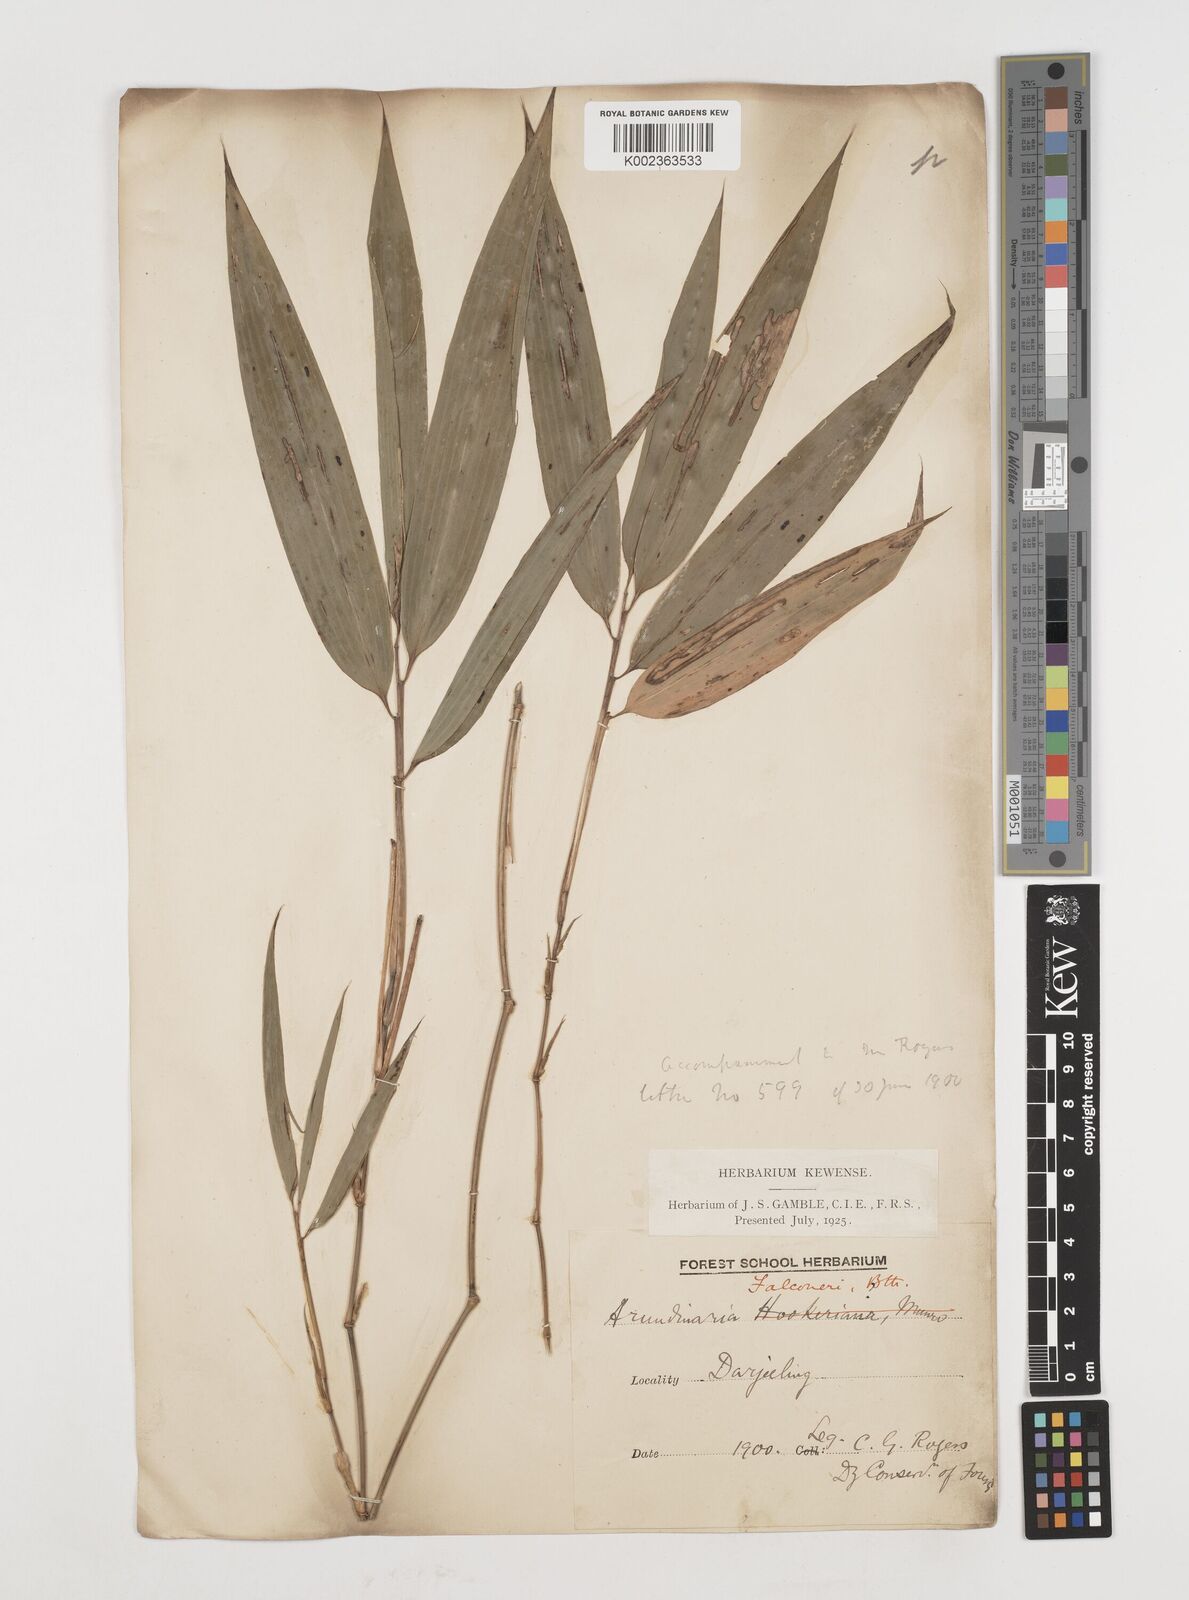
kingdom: Plantae
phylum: Tracheophyta
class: Liliopsida
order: Poales
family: Poaceae
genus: Himalayacalamus
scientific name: Himalayacalamus falconeri
